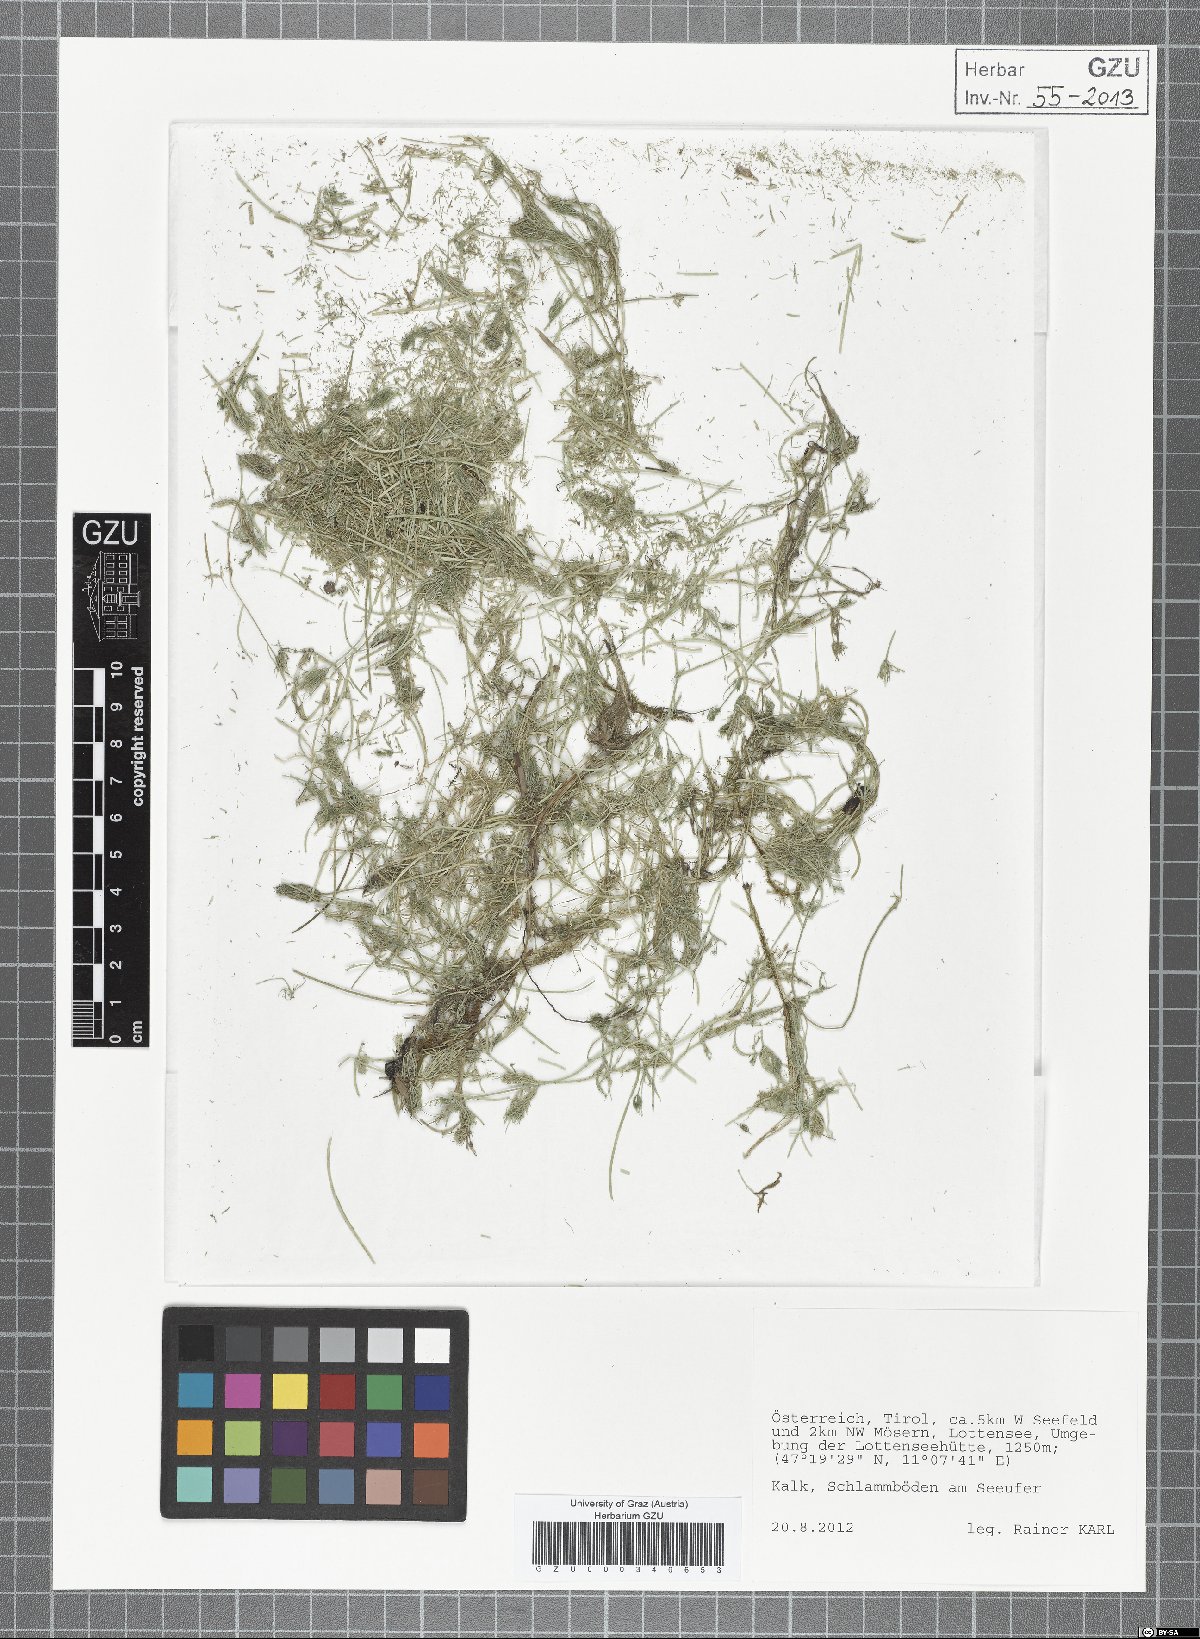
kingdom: Plantae
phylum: Charophyta
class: Charophyceae
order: Charales
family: Characeae
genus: Chara
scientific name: Chara
